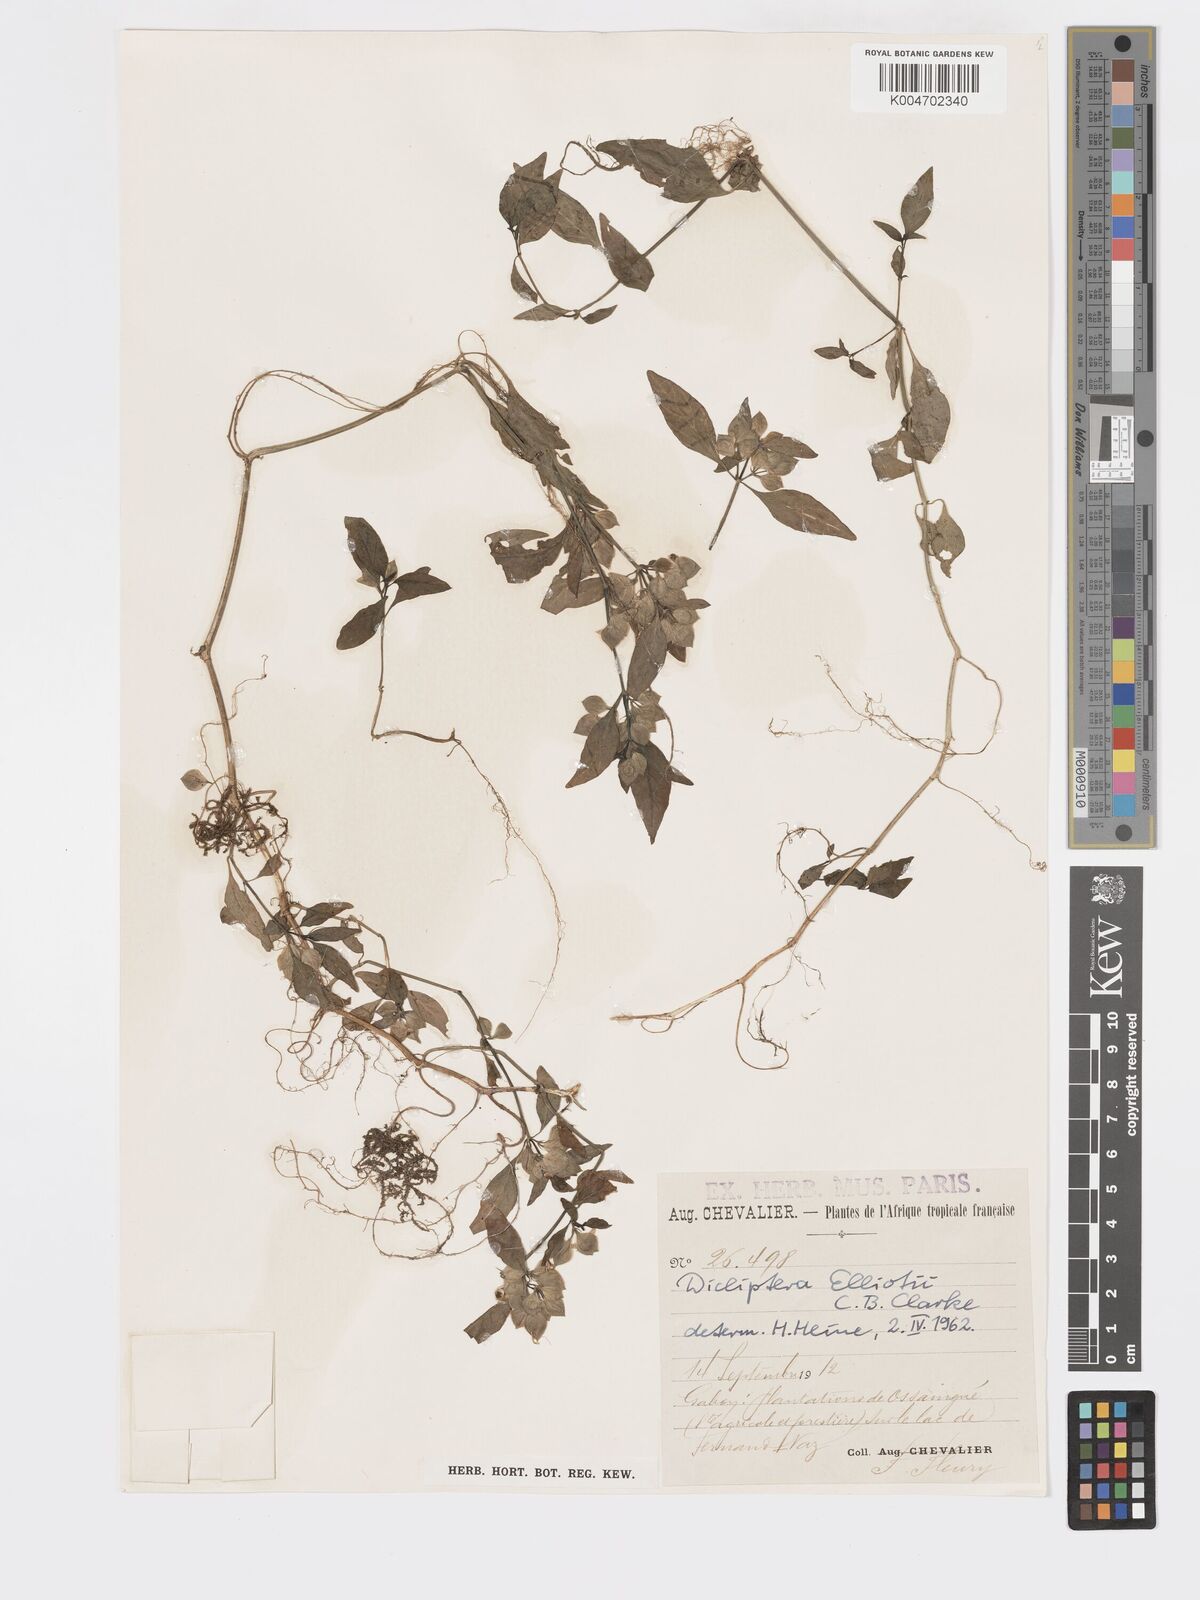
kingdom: Plantae
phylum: Tracheophyta
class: Magnoliopsida
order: Lamiales
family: Acanthaceae
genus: Dicliptera
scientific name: Dicliptera elliotii
